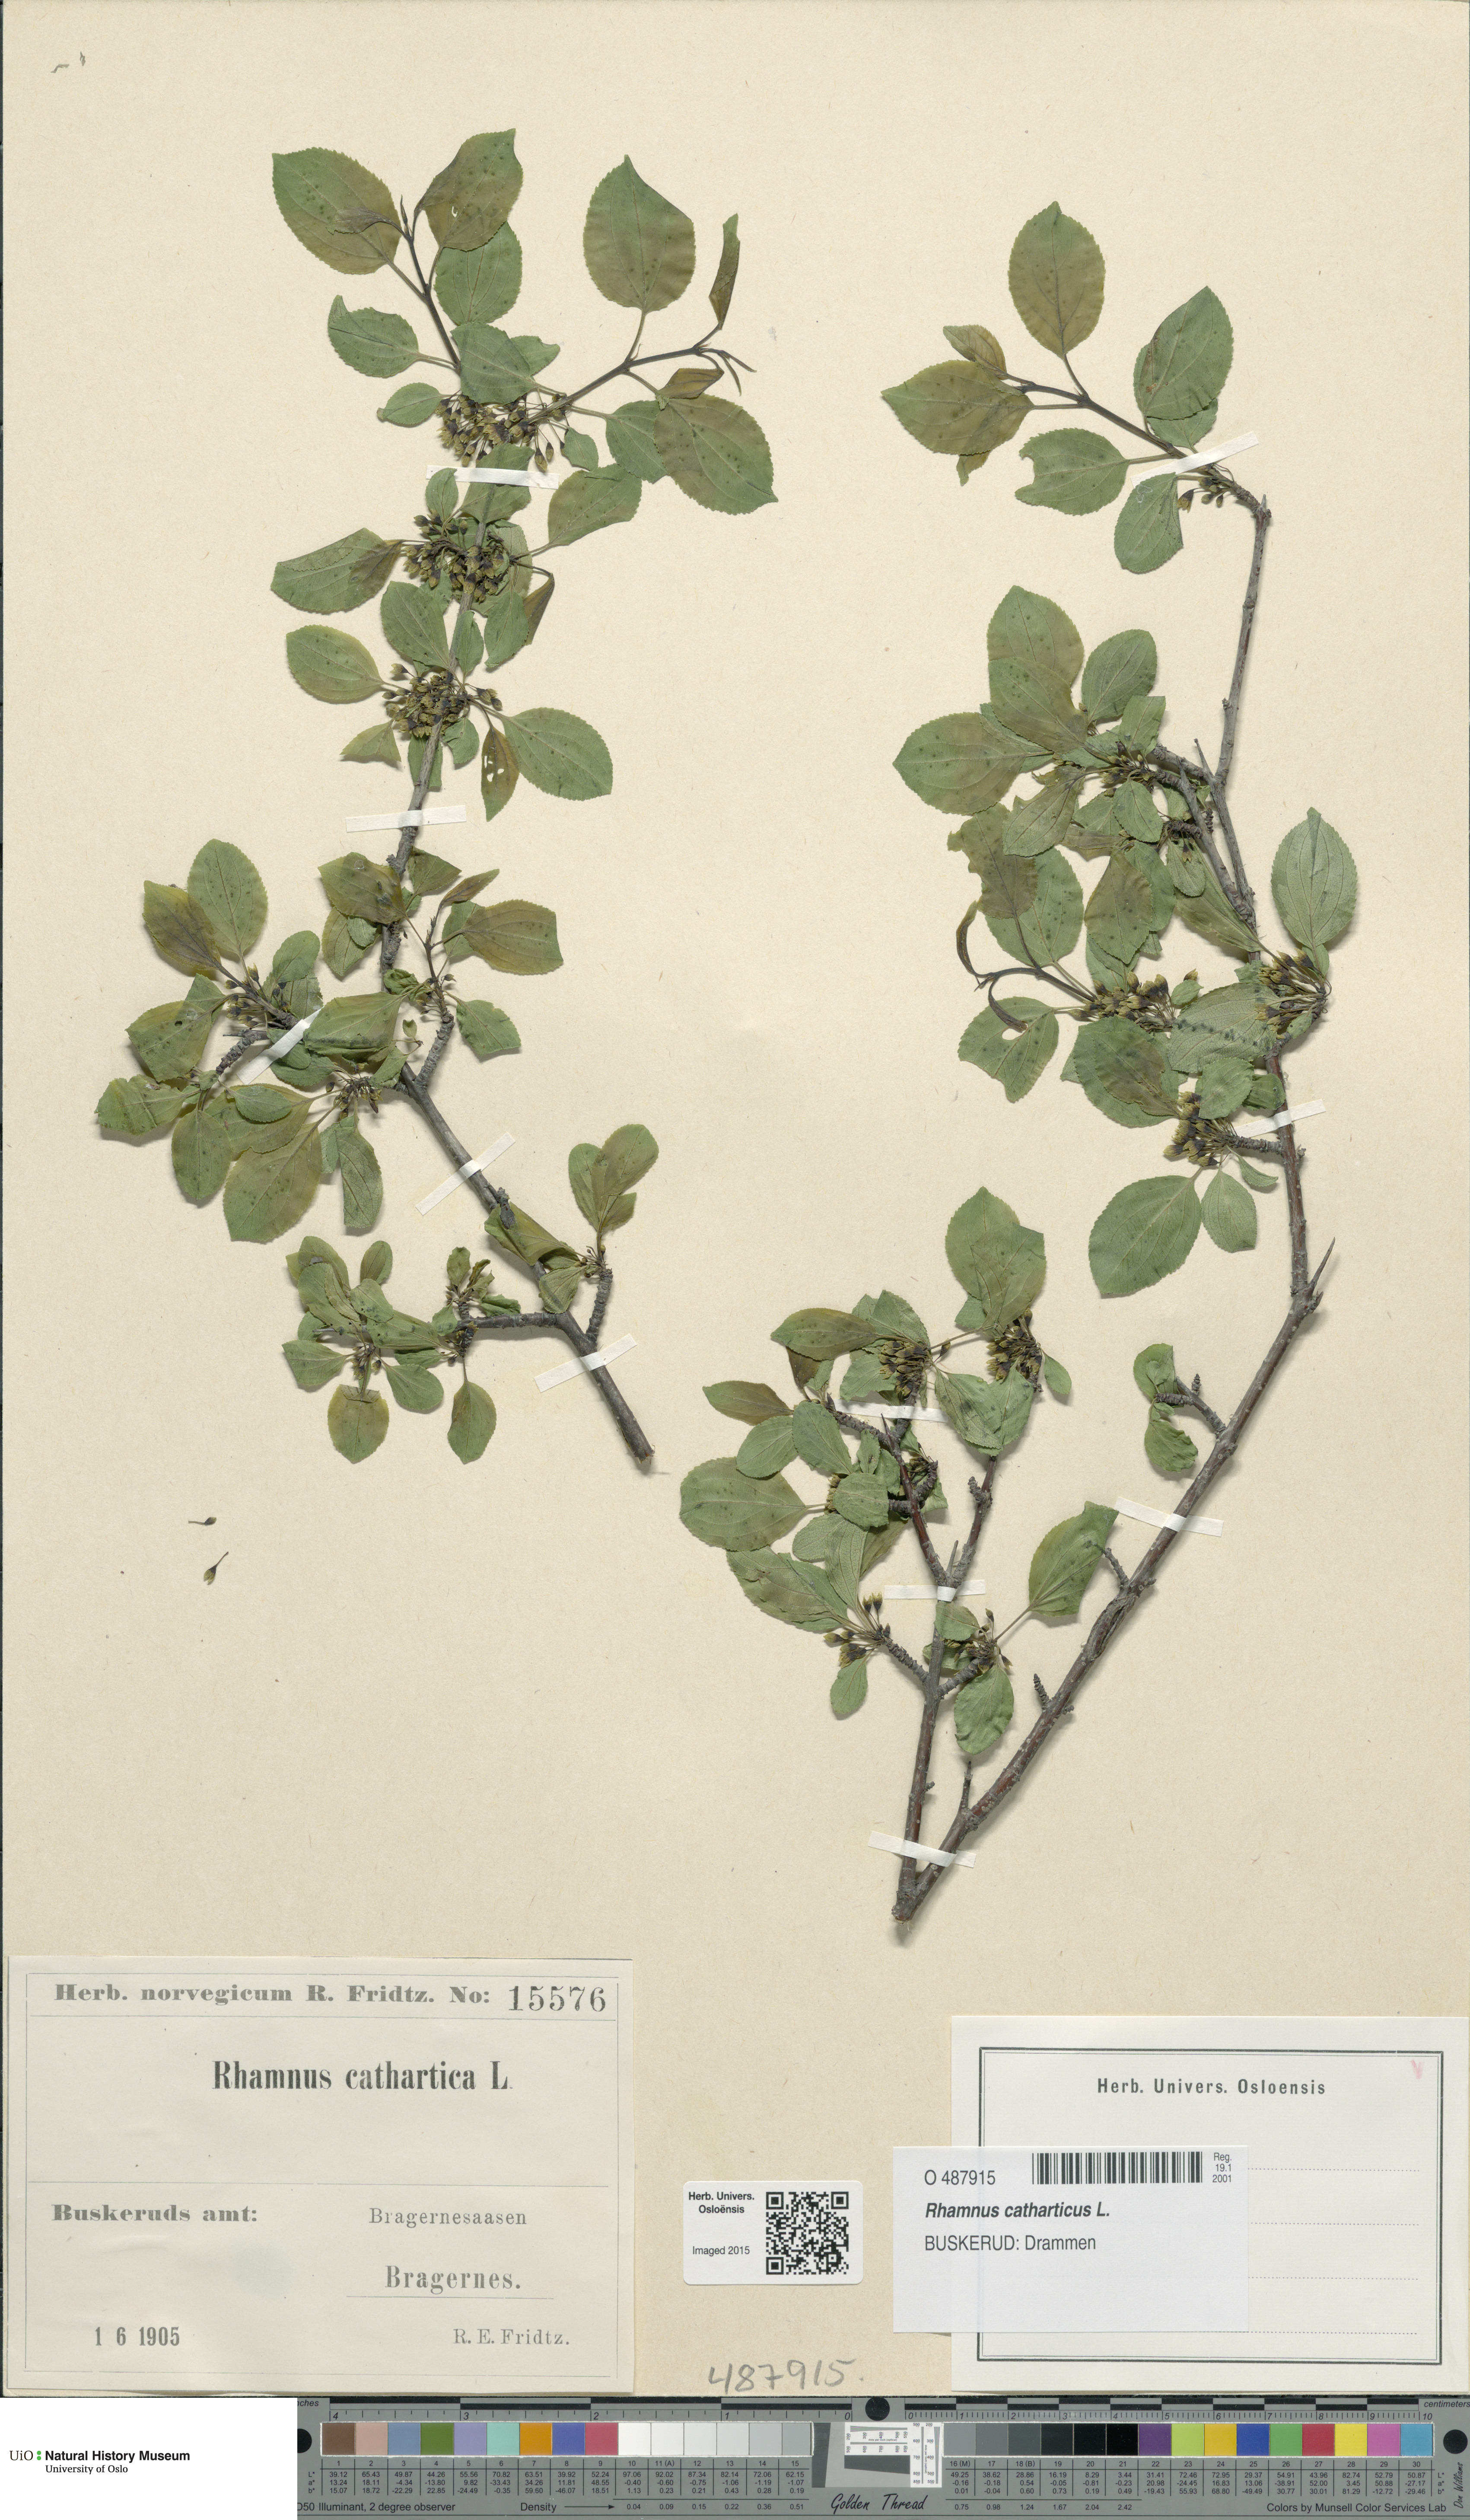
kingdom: Plantae
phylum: Tracheophyta
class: Magnoliopsida
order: Rosales
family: Rhamnaceae
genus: Rhamnus
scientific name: Rhamnus cathartica
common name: Common buckthorn
